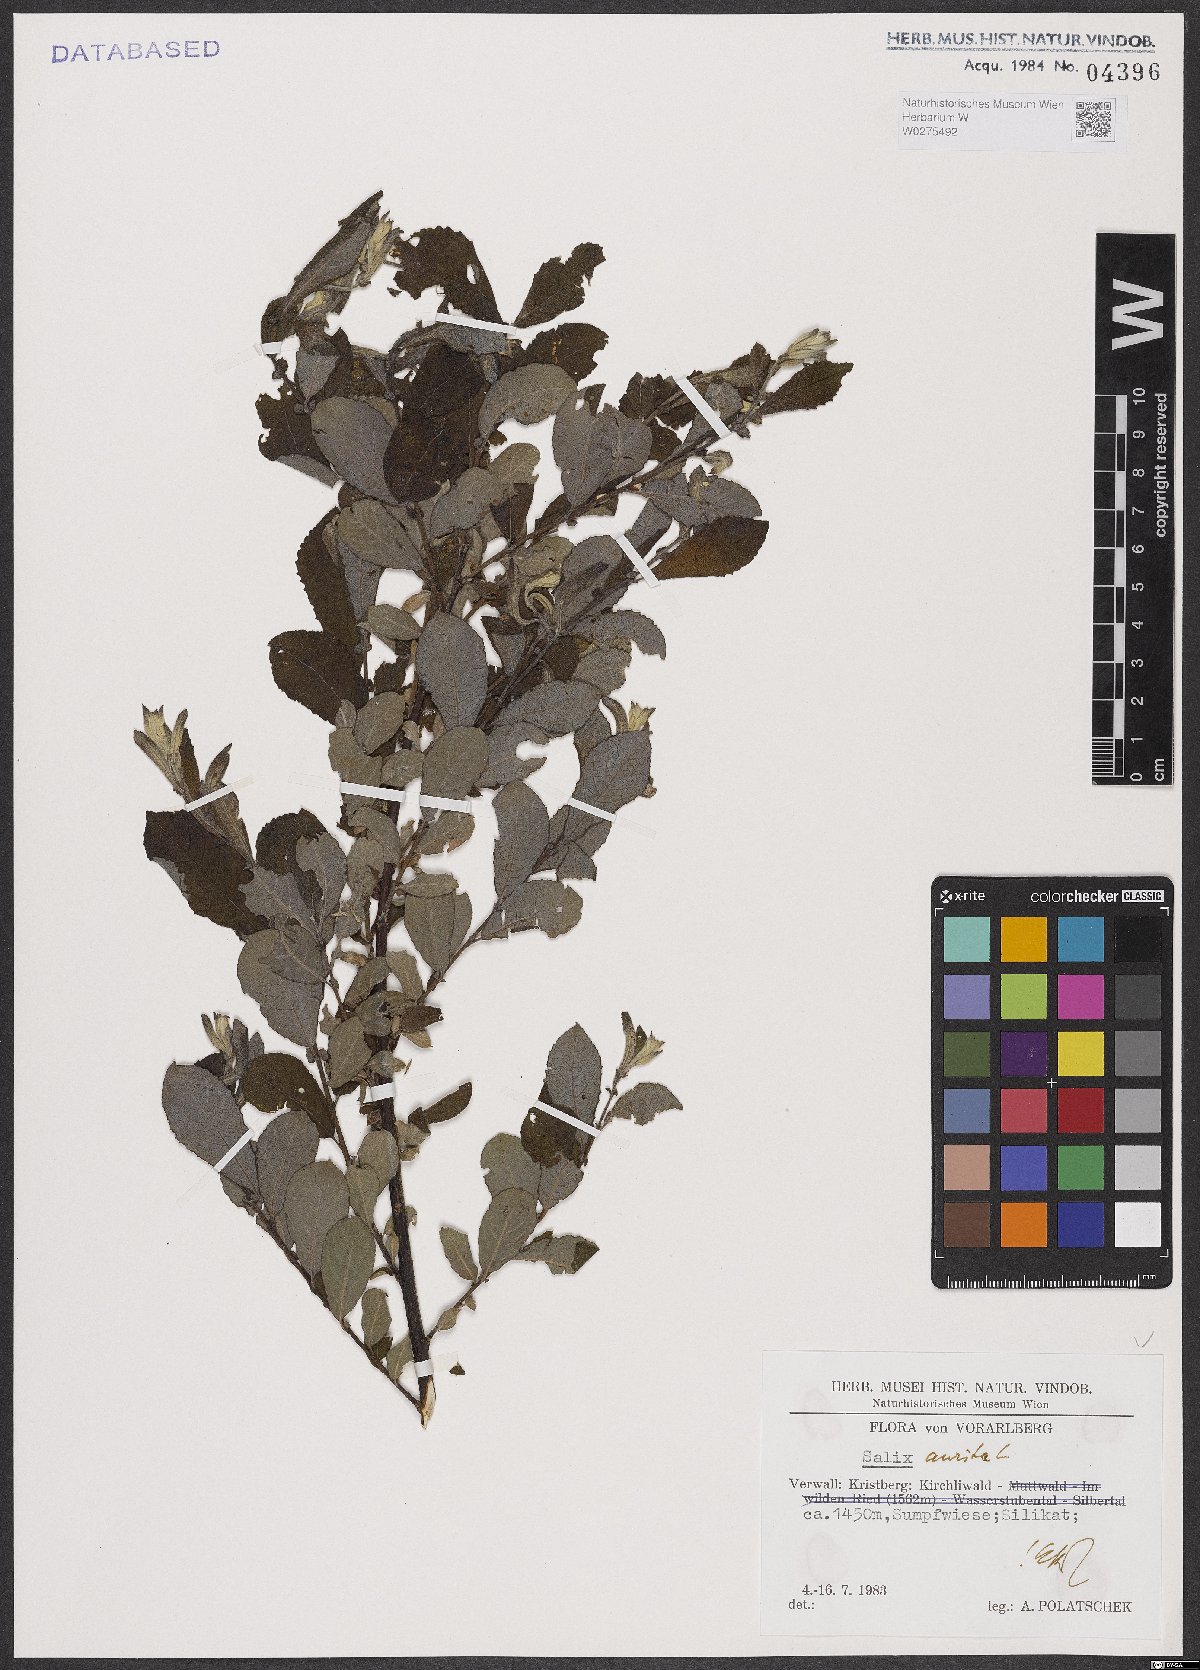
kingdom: Plantae
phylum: Tracheophyta
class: Magnoliopsida
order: Malpighiales
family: Salicaceae
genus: Salix
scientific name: Salix aurita
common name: Eared willow
